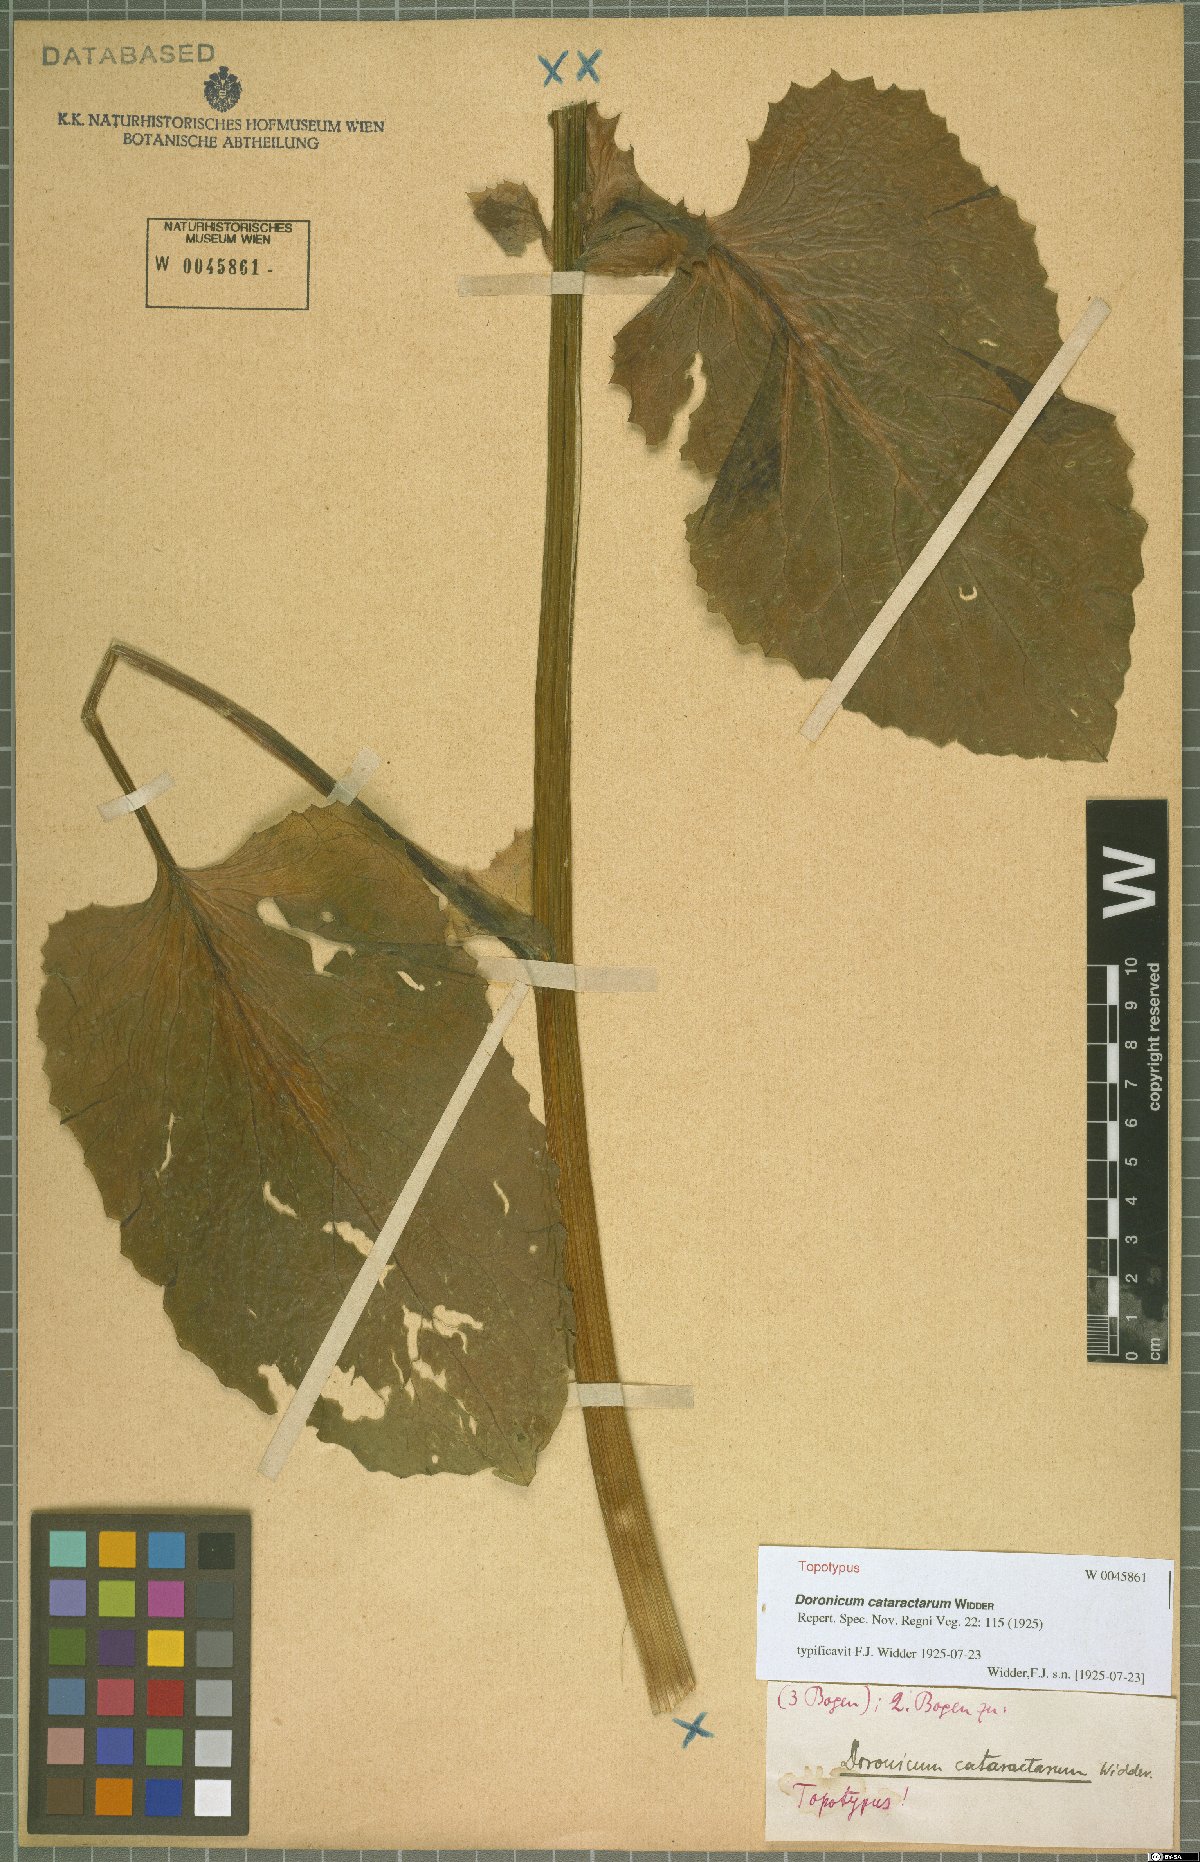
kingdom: Plantae
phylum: Tracheophyta
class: Magnoliopsida
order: Asterales
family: Asteraceae
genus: Doronicum
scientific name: Doronicum cataractarum
